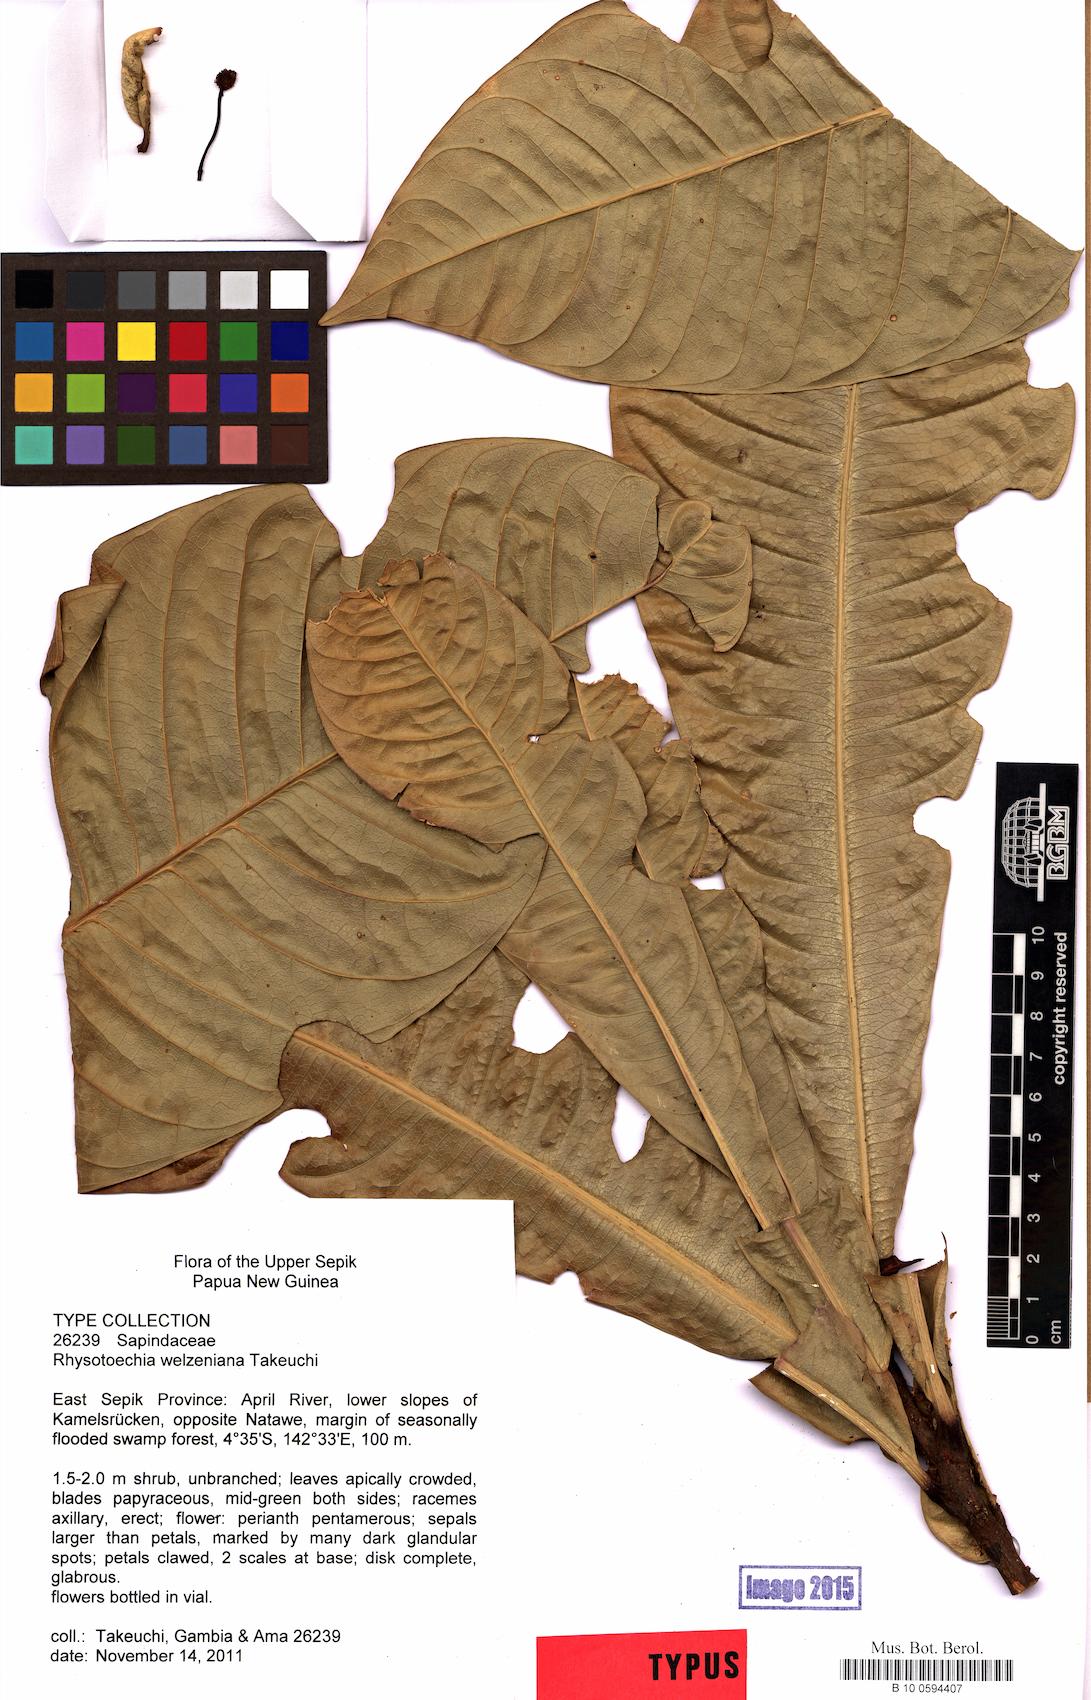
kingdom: Plantae
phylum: Tracheophyta
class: Magnoliopsida
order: Sapindales
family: Sapindaceae
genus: Rhysotoechia
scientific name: Rhysotoechia welzeniana
